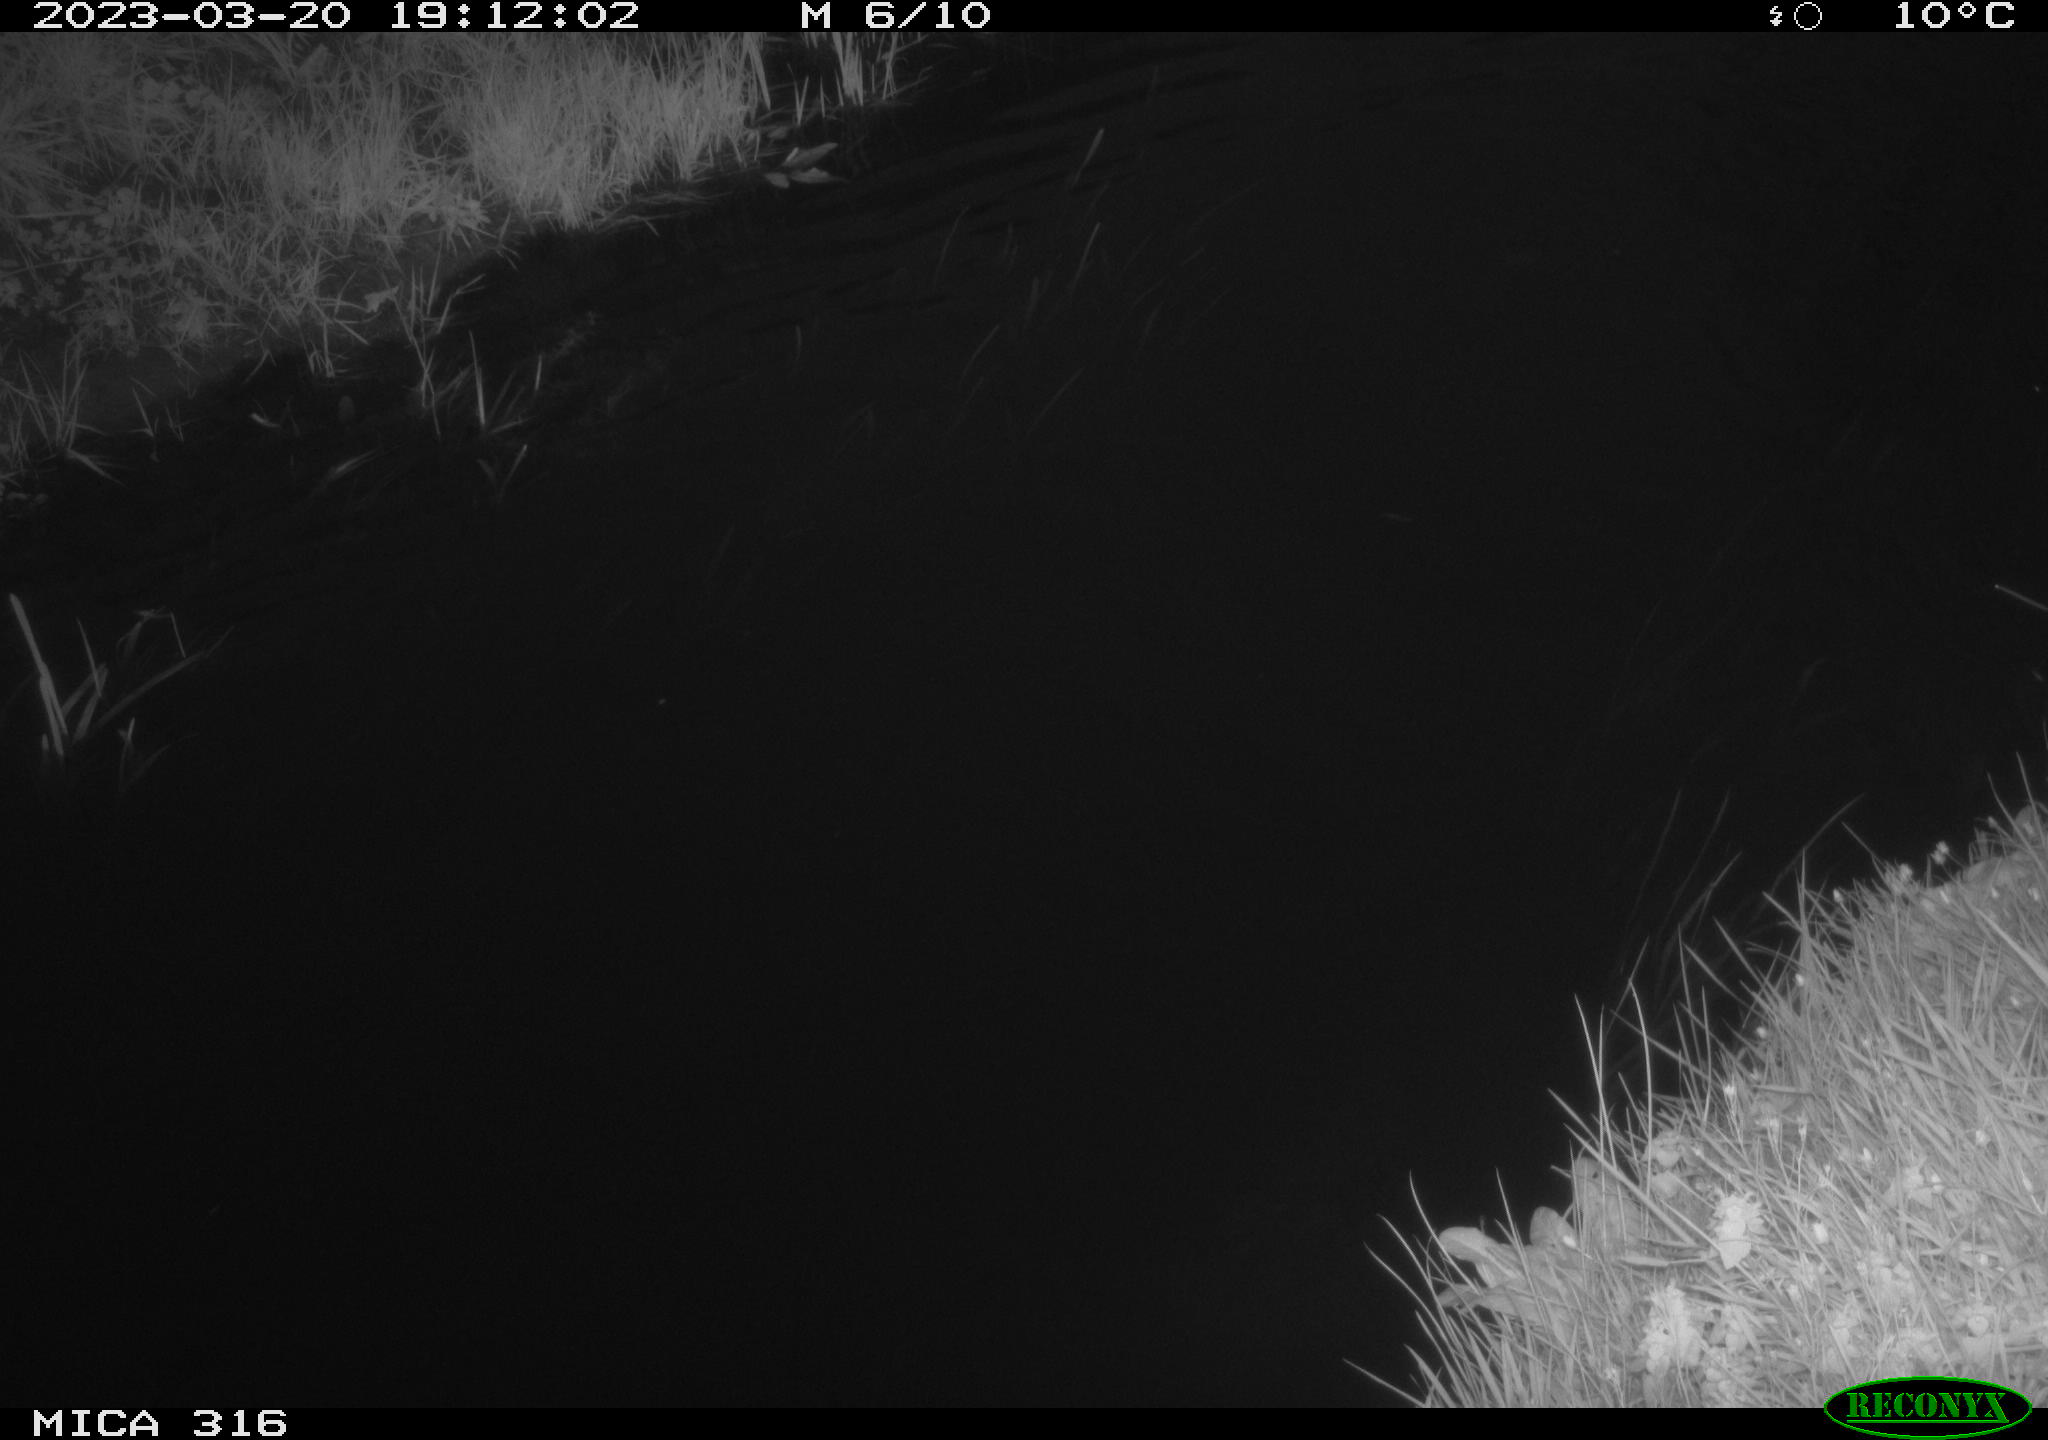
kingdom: Animalia
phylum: Chordata
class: Mammalia
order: Rodentia
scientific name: Rodentia
